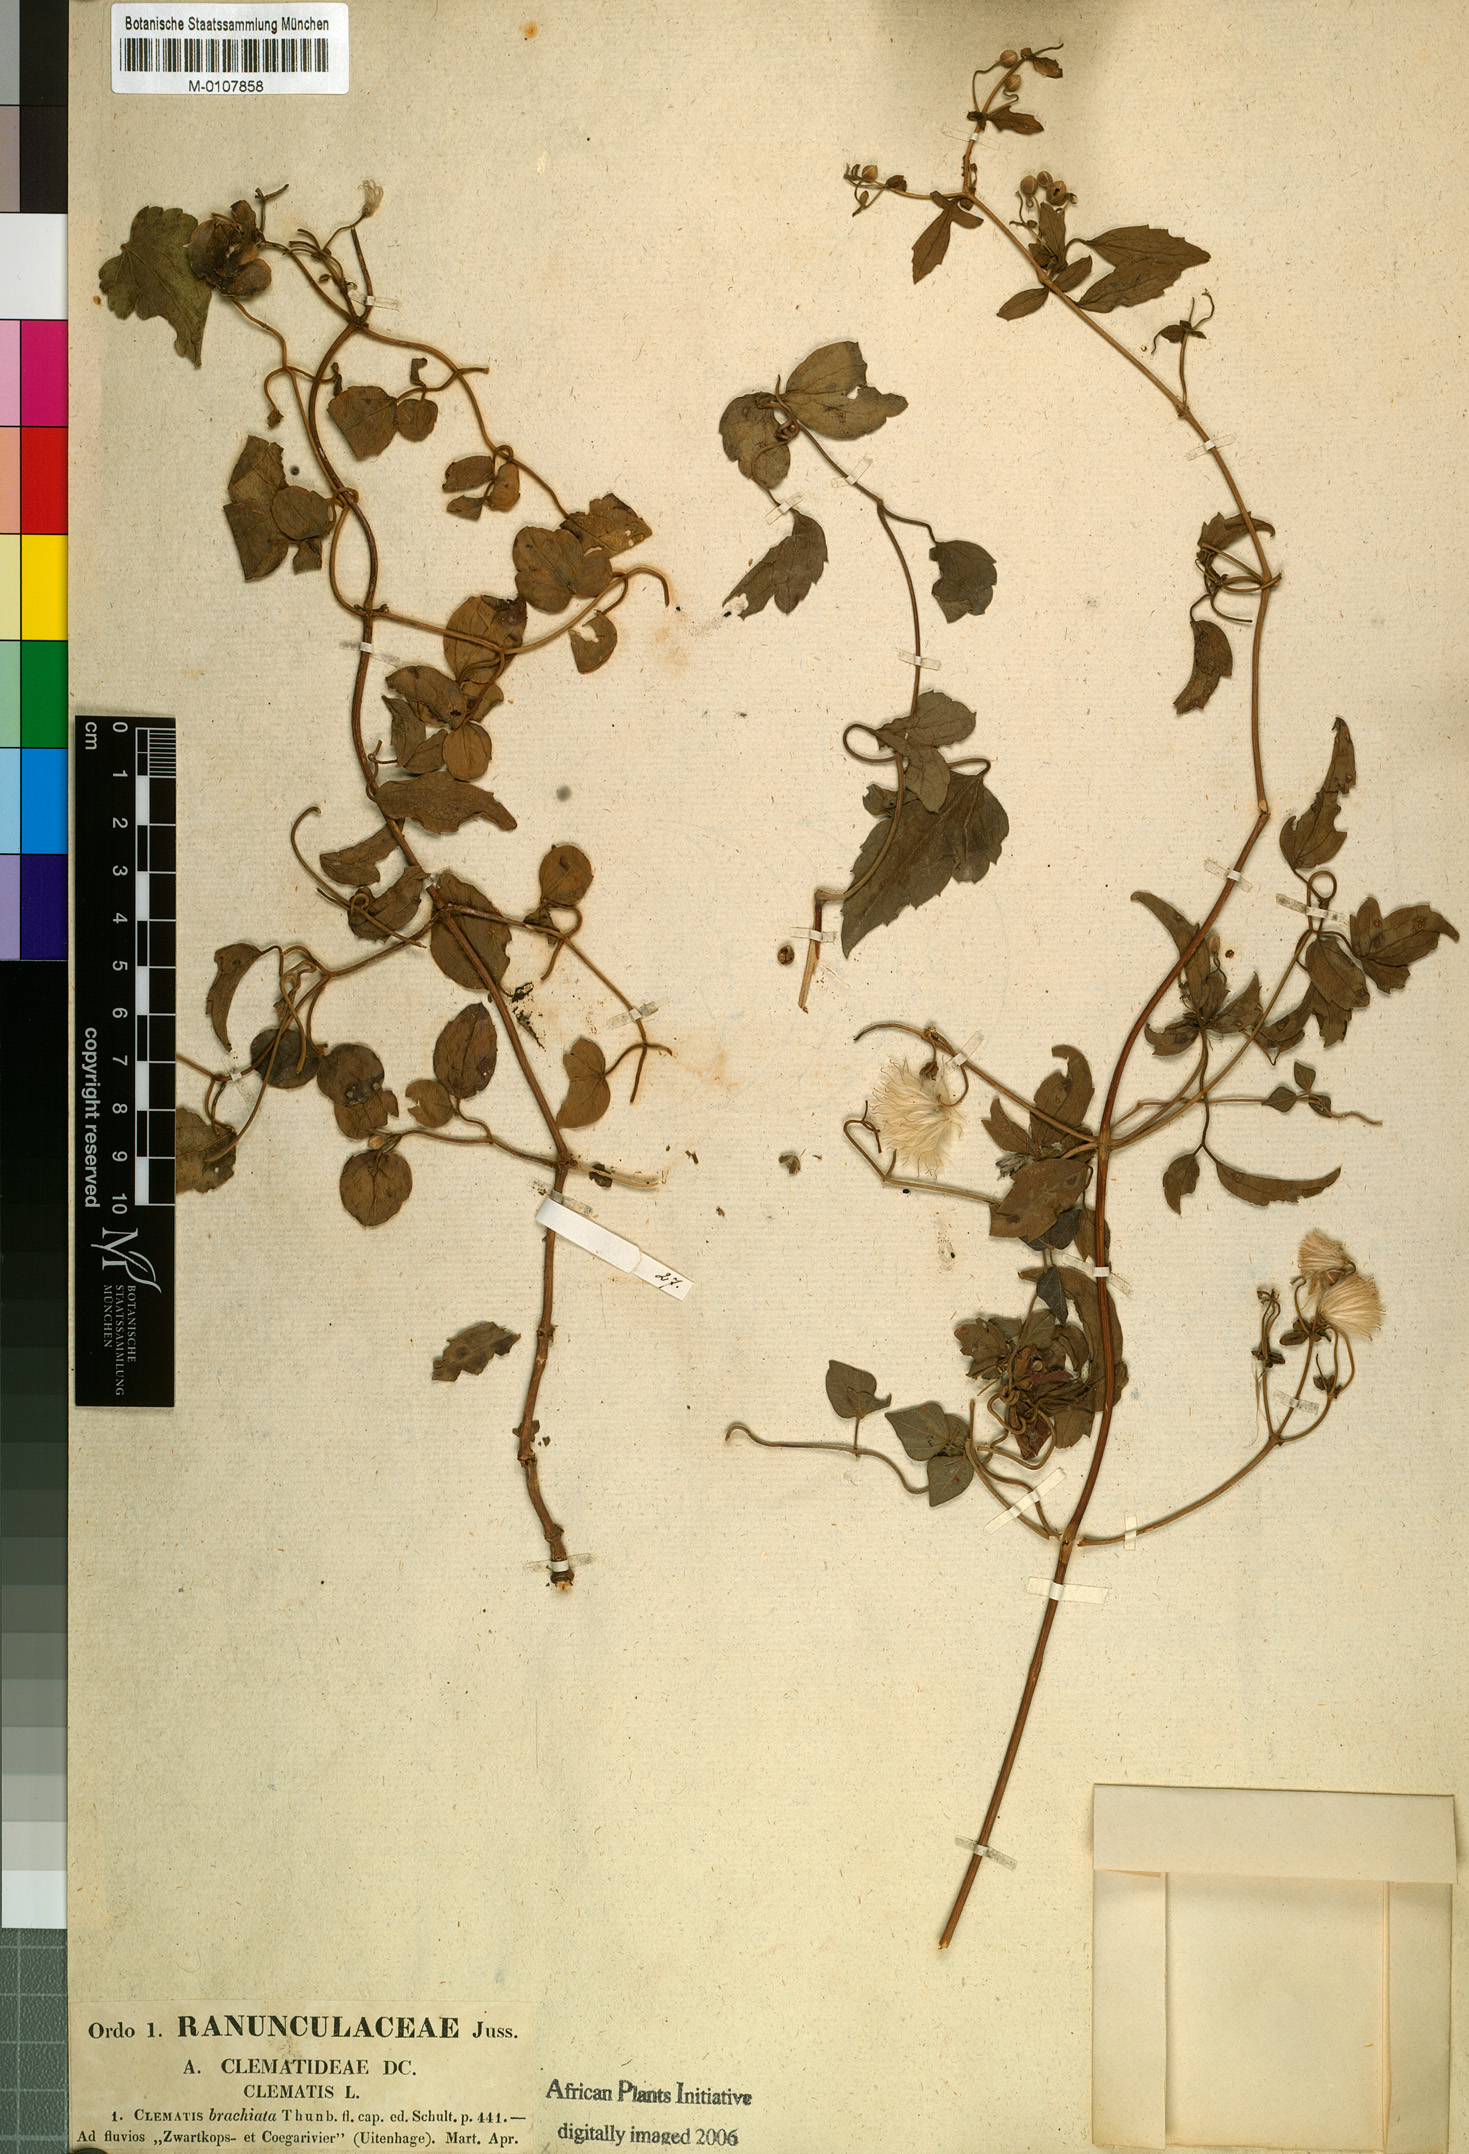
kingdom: Plantae
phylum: Tracheophyta
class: Magnoliopsida
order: Ranunculales
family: Ranunculaceae
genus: Clematis
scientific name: Clematis brachiata
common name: Traveler's-joy
